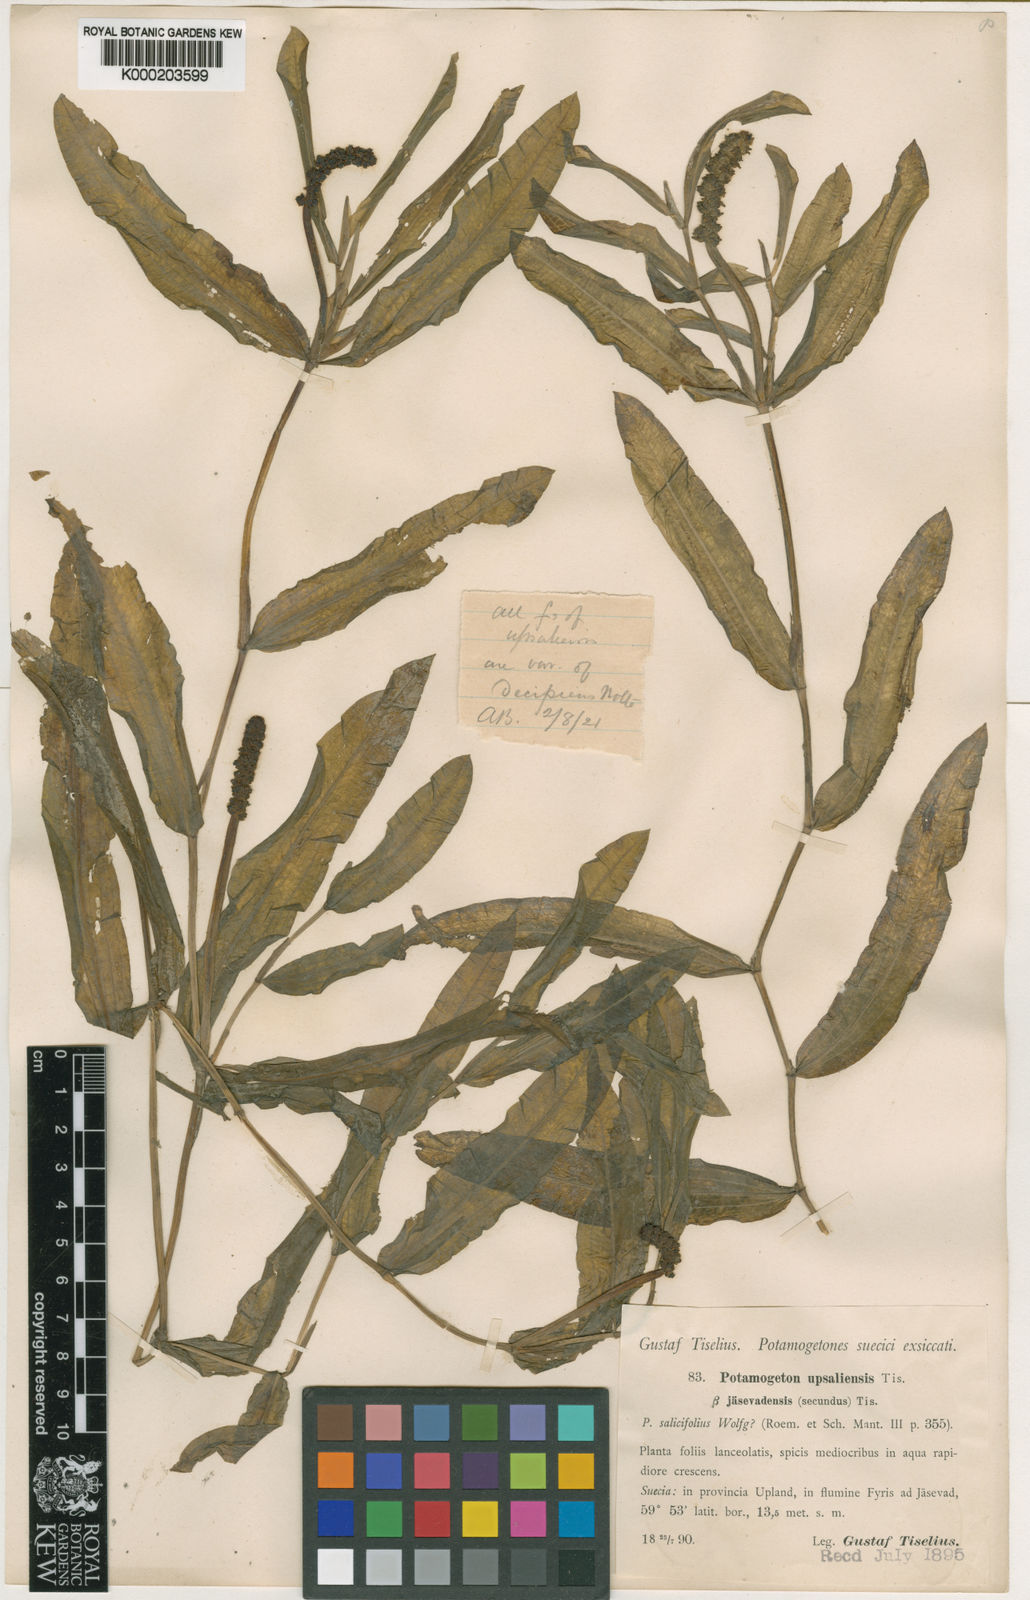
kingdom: Plantae
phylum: Tracheophyta
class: Liliopsida
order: Alismatales
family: Potamogetonaceae
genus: Potamogeton
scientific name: Potamogeton salicifolius
